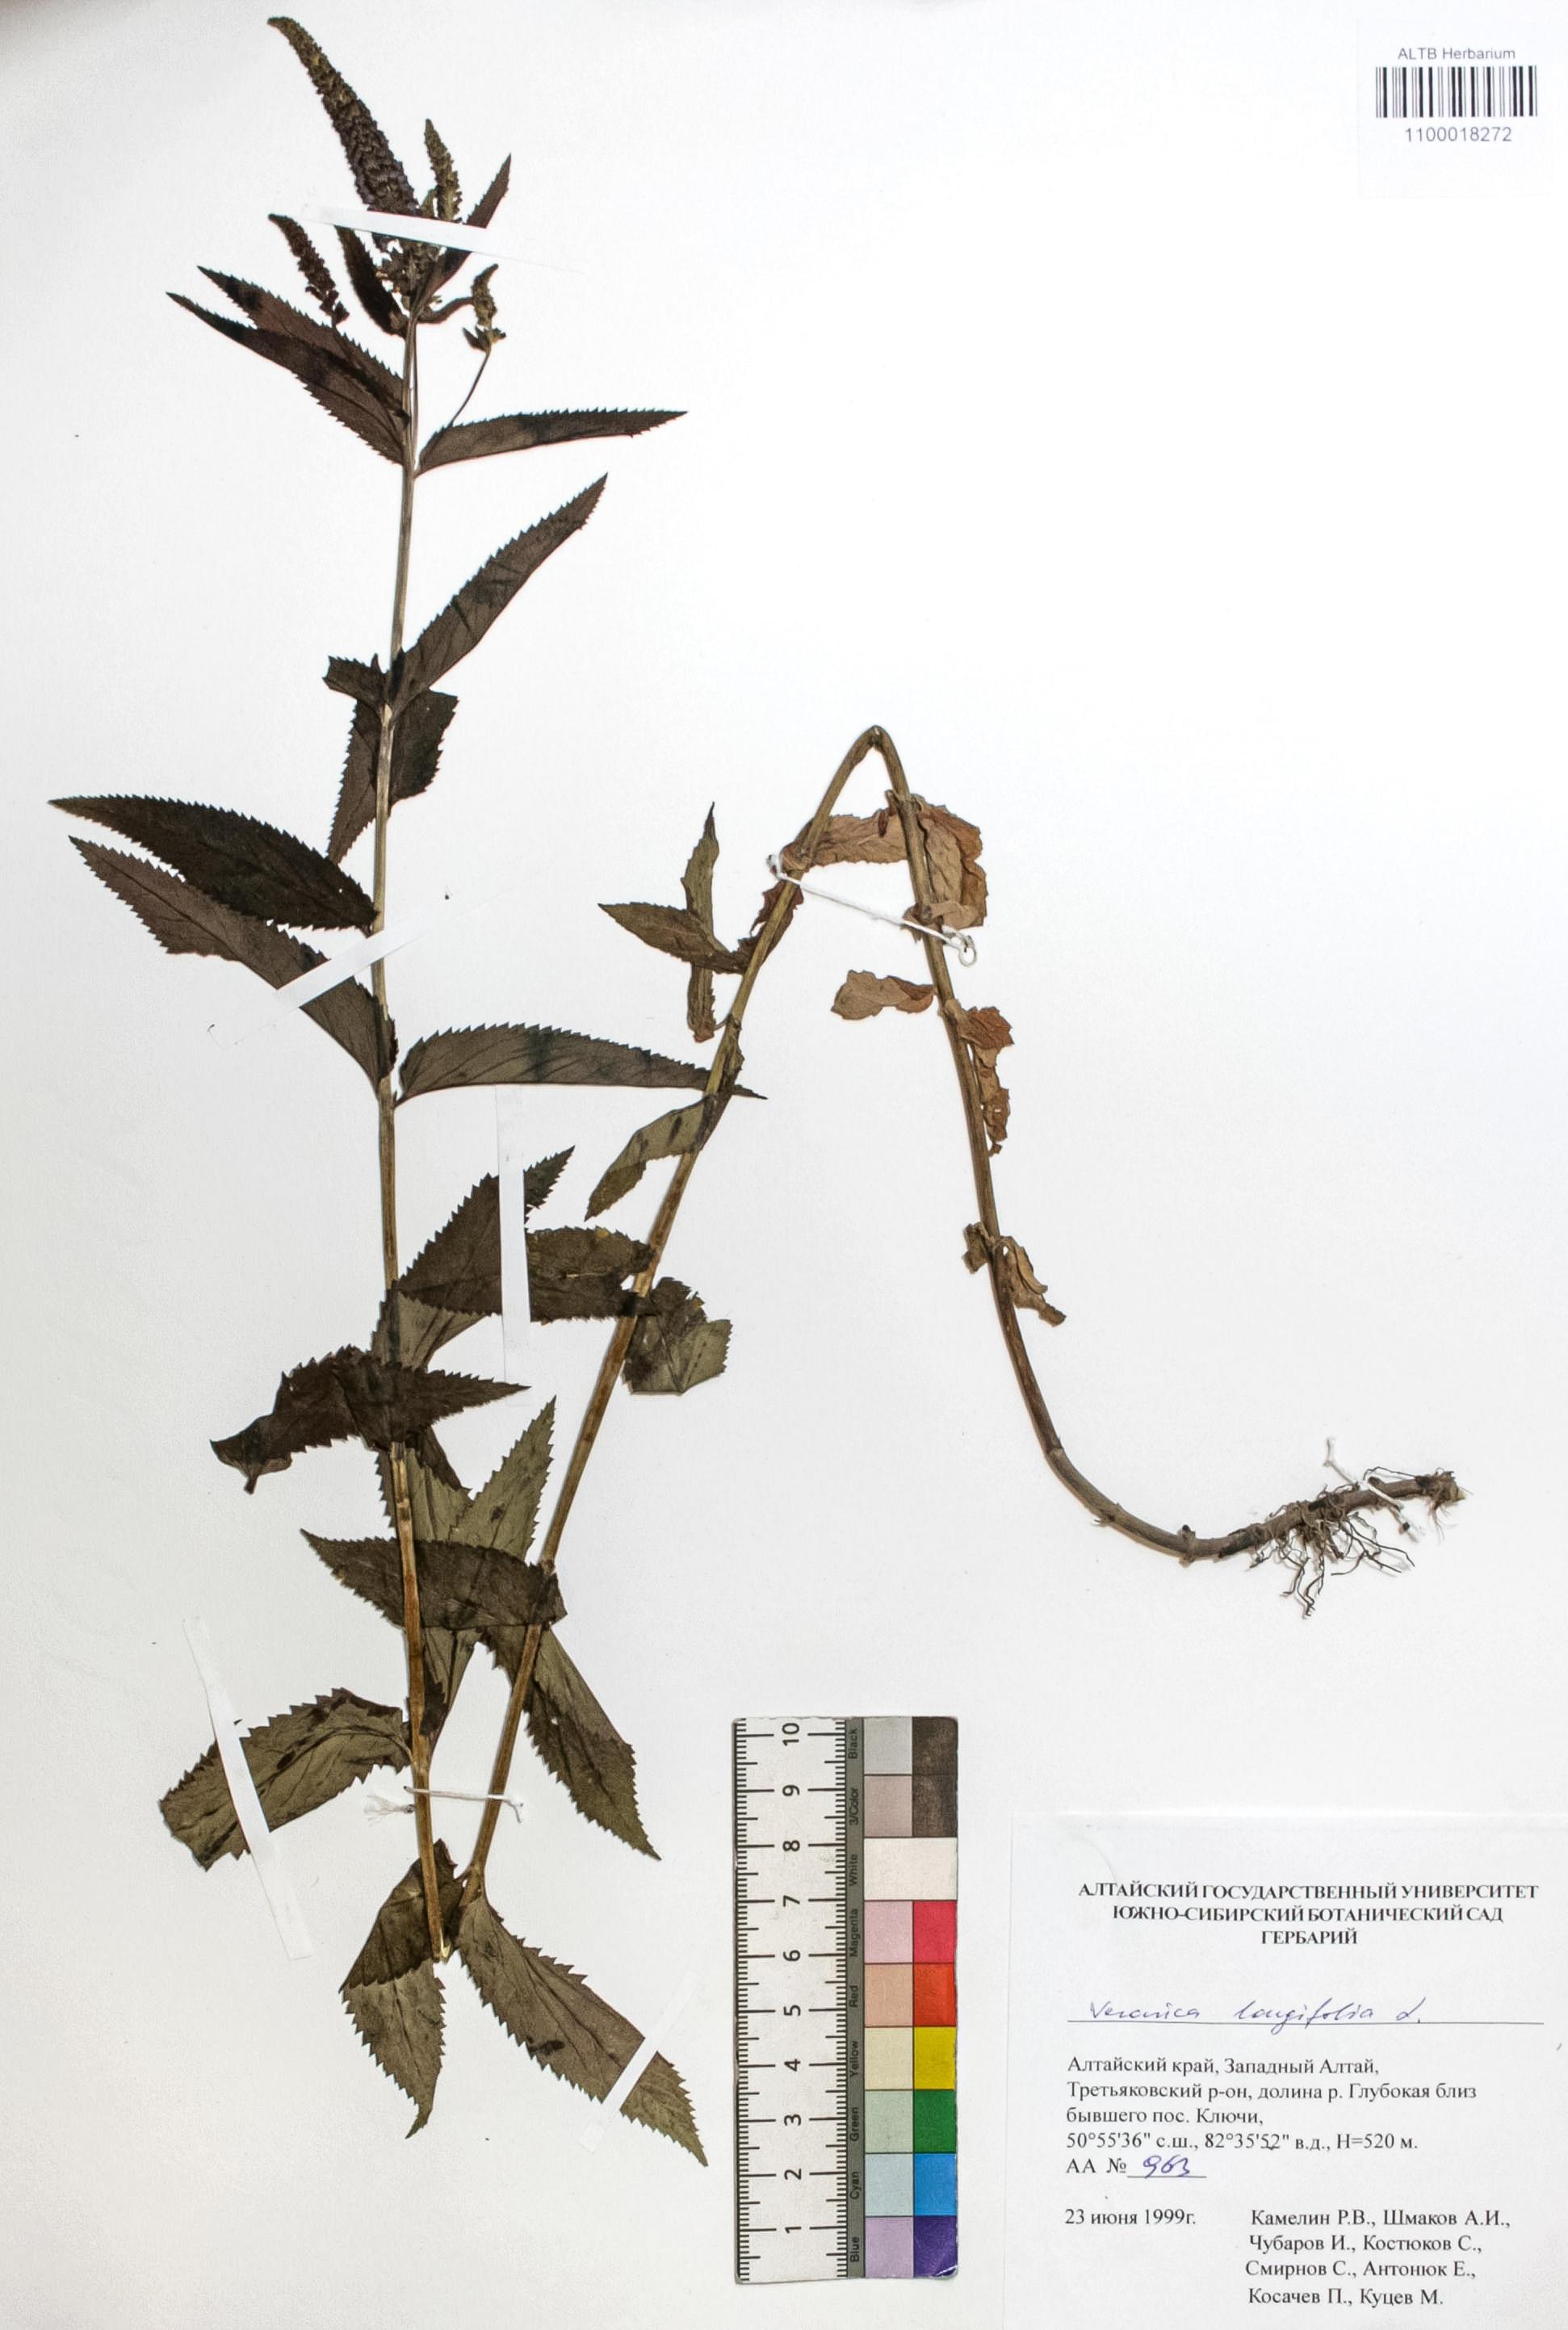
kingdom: Plantae
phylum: Tracheophyta
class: Magnoliopsida
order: Lamiales
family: Plantaginaceae
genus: Veronica
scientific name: Veronica longifolia
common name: Garden speedwell
